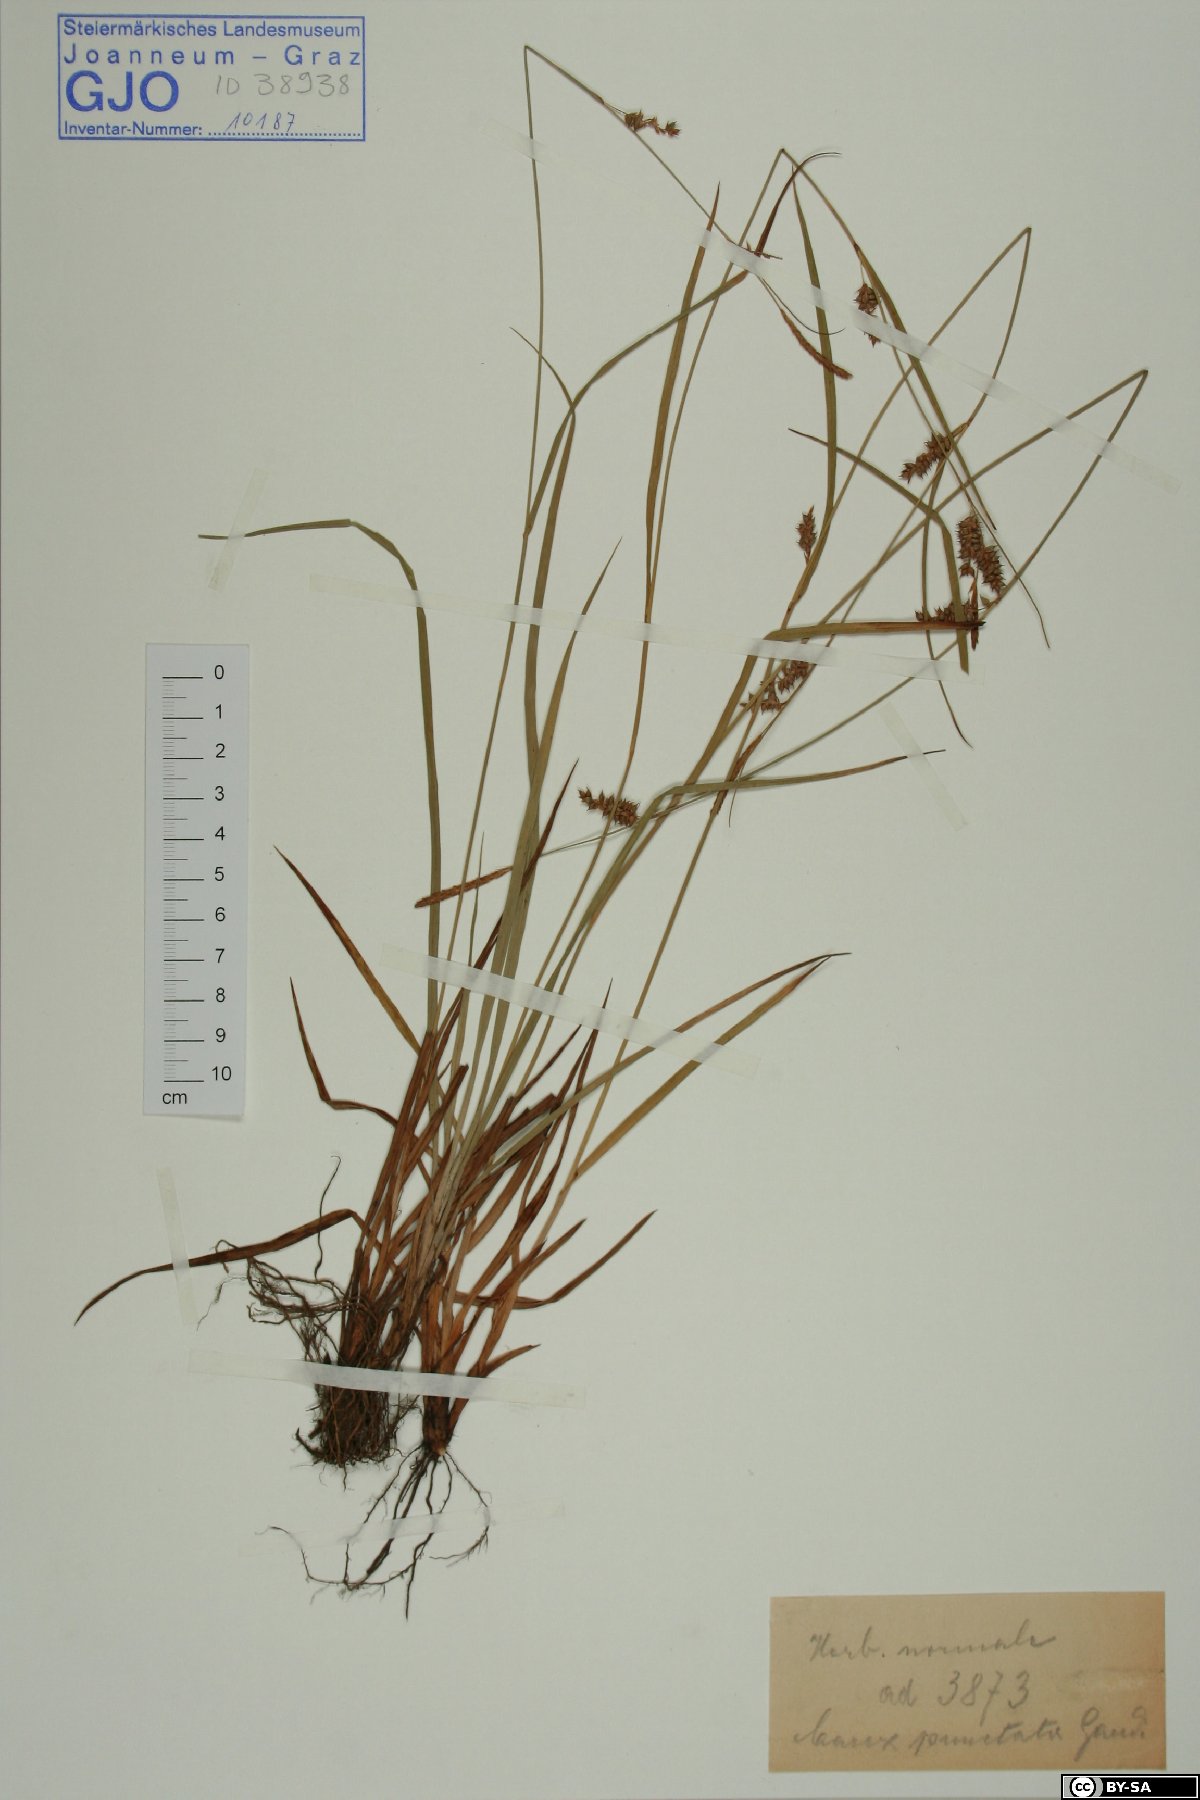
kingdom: Plantae
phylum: Tracheophyta
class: Liliopsida
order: Poales
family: Cyperaceae
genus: Carex
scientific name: Carex punctata
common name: Dotted sedge
